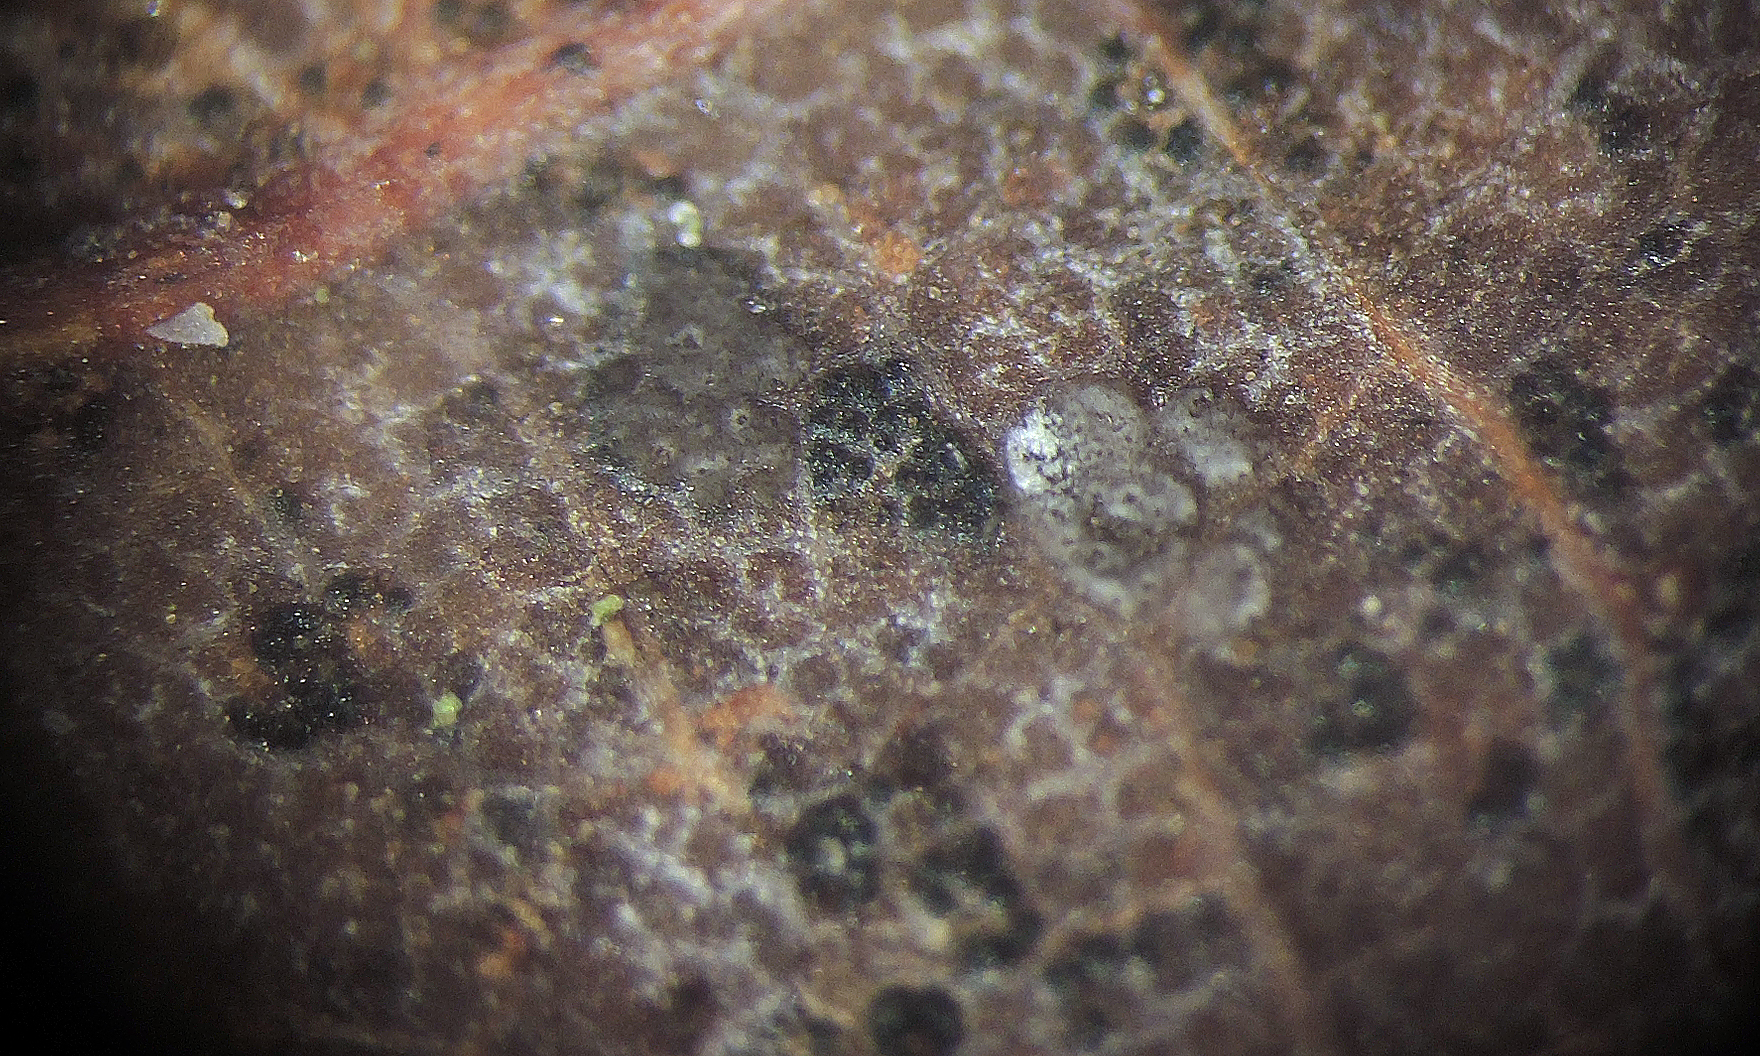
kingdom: Fungi
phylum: Ascomycota
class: Sordariomycetes
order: Hypocreales
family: Nectriaceae
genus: Fusidium
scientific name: Fusidium griseum
